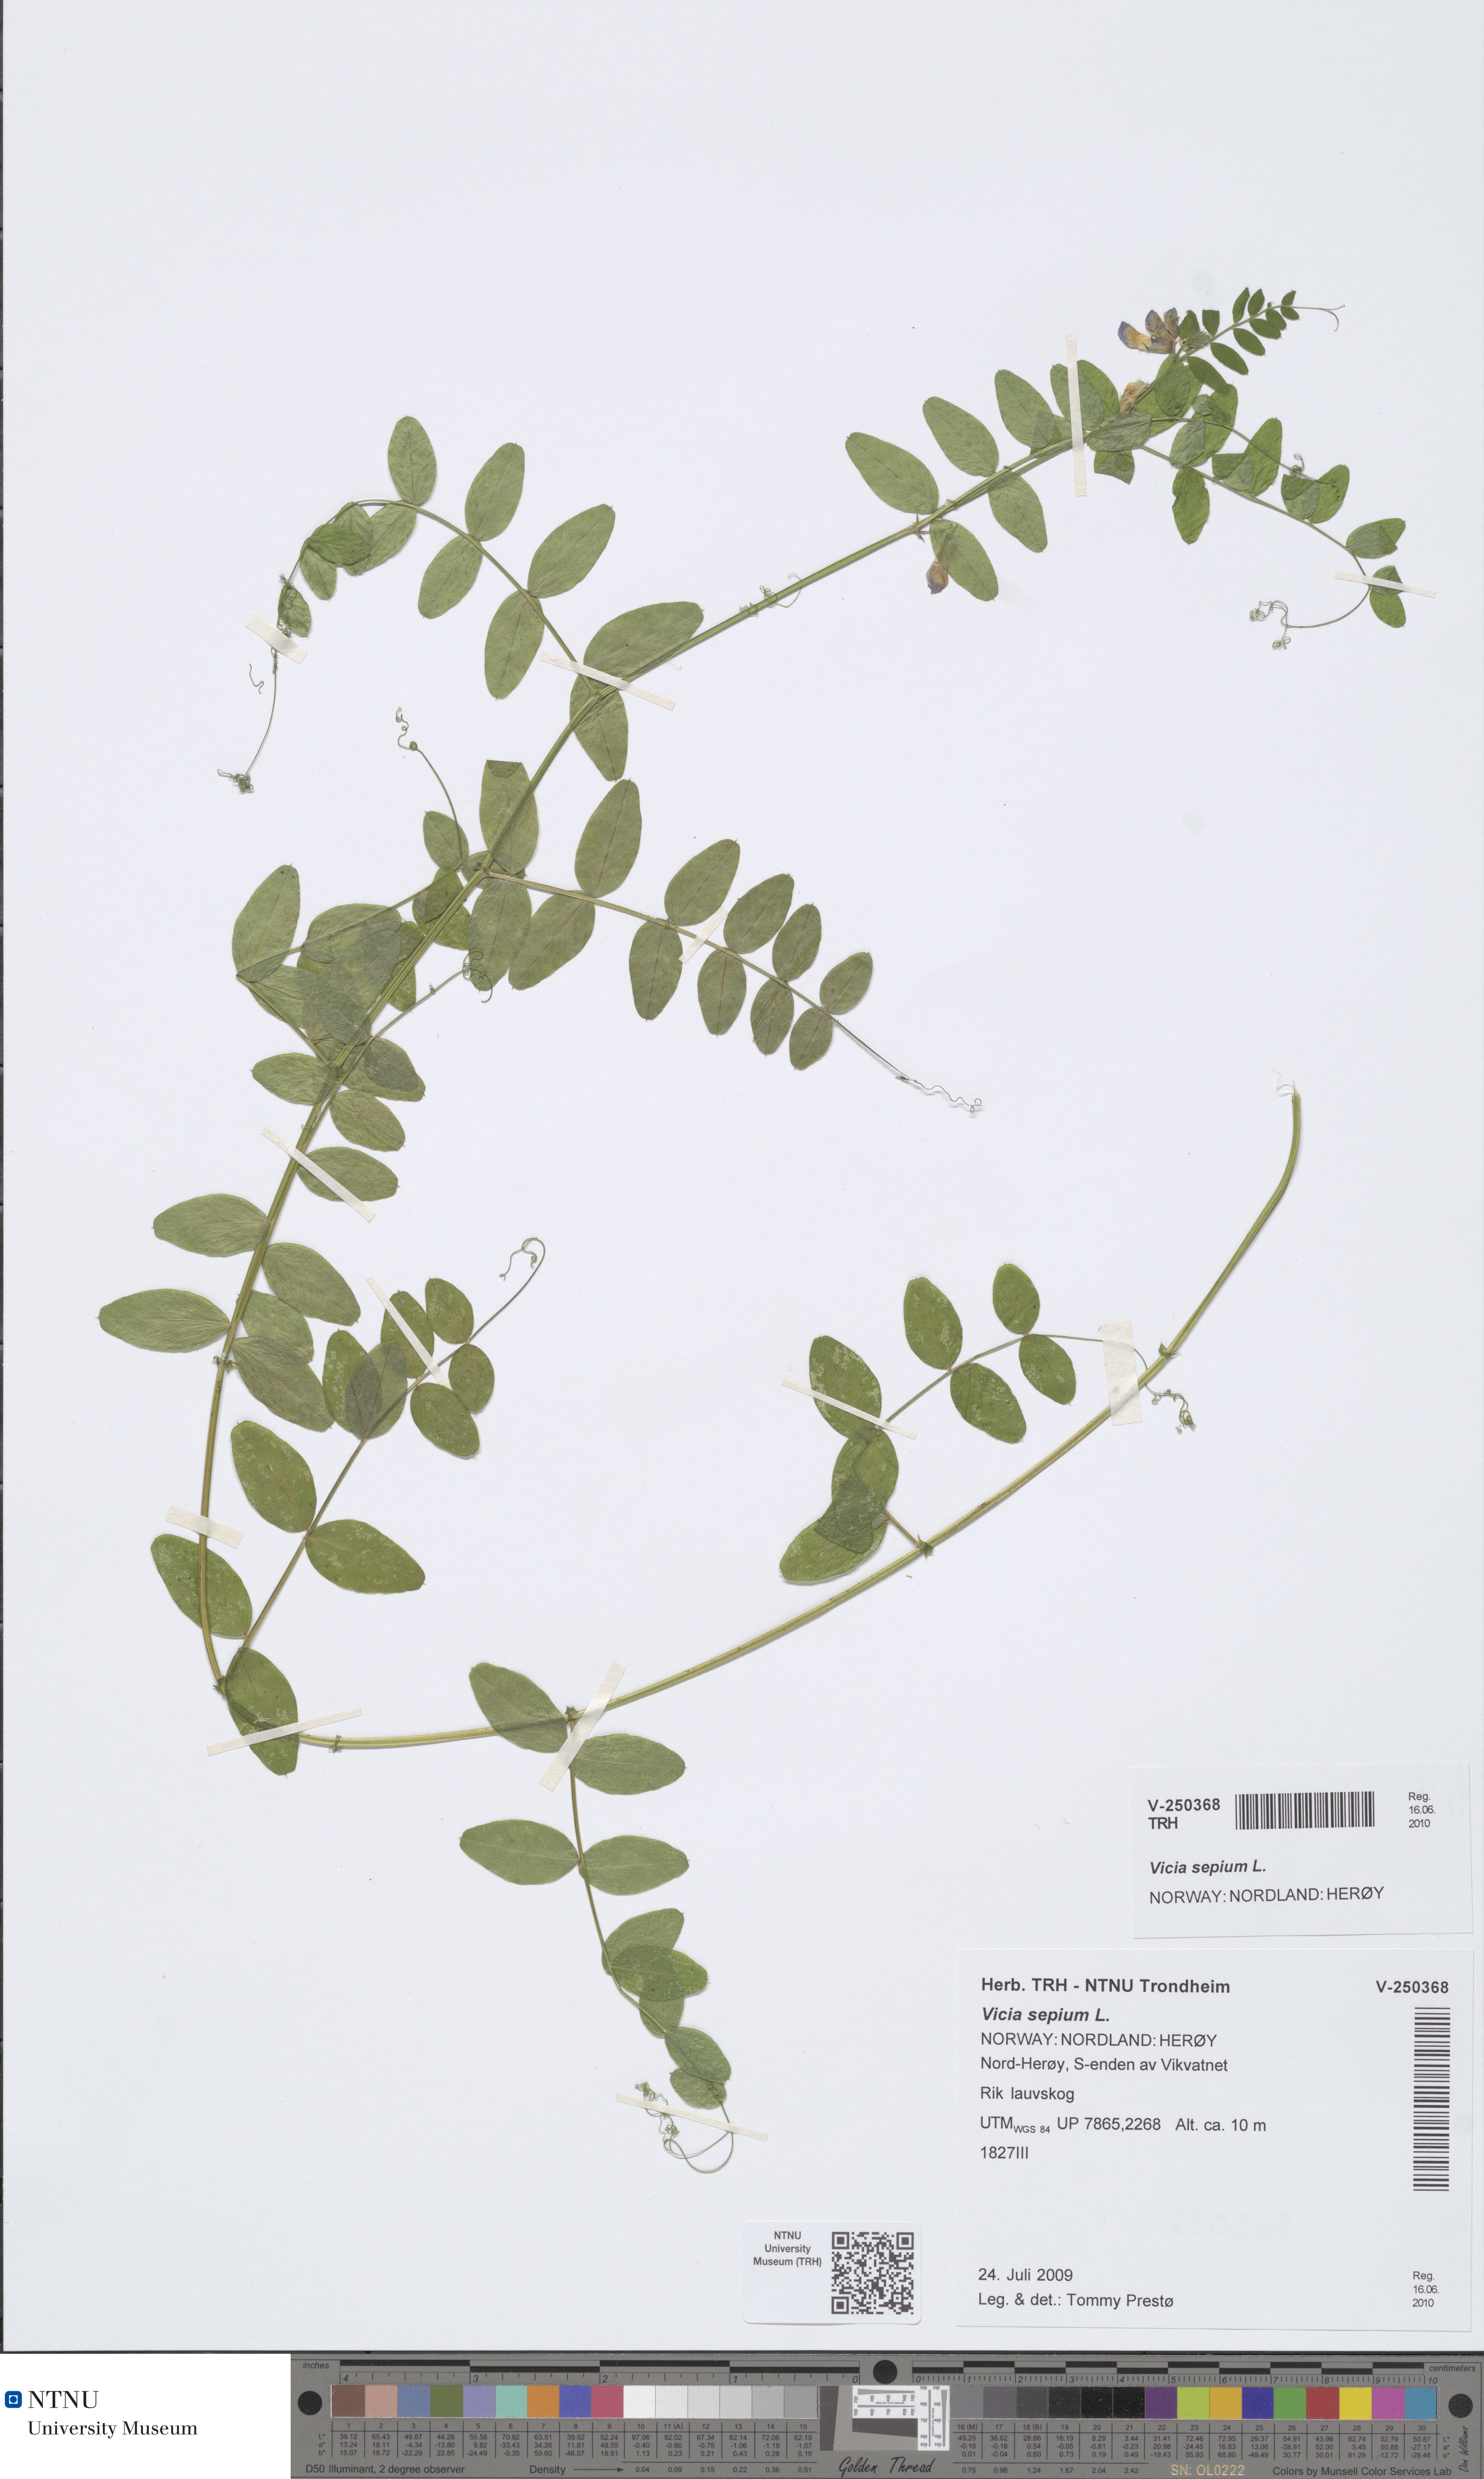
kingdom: Plantae
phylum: Tracheophyta
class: Magnoliopsida
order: Fabales
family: Fabaceae
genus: Vicia
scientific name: Vicia sepium
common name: Bush vetch
